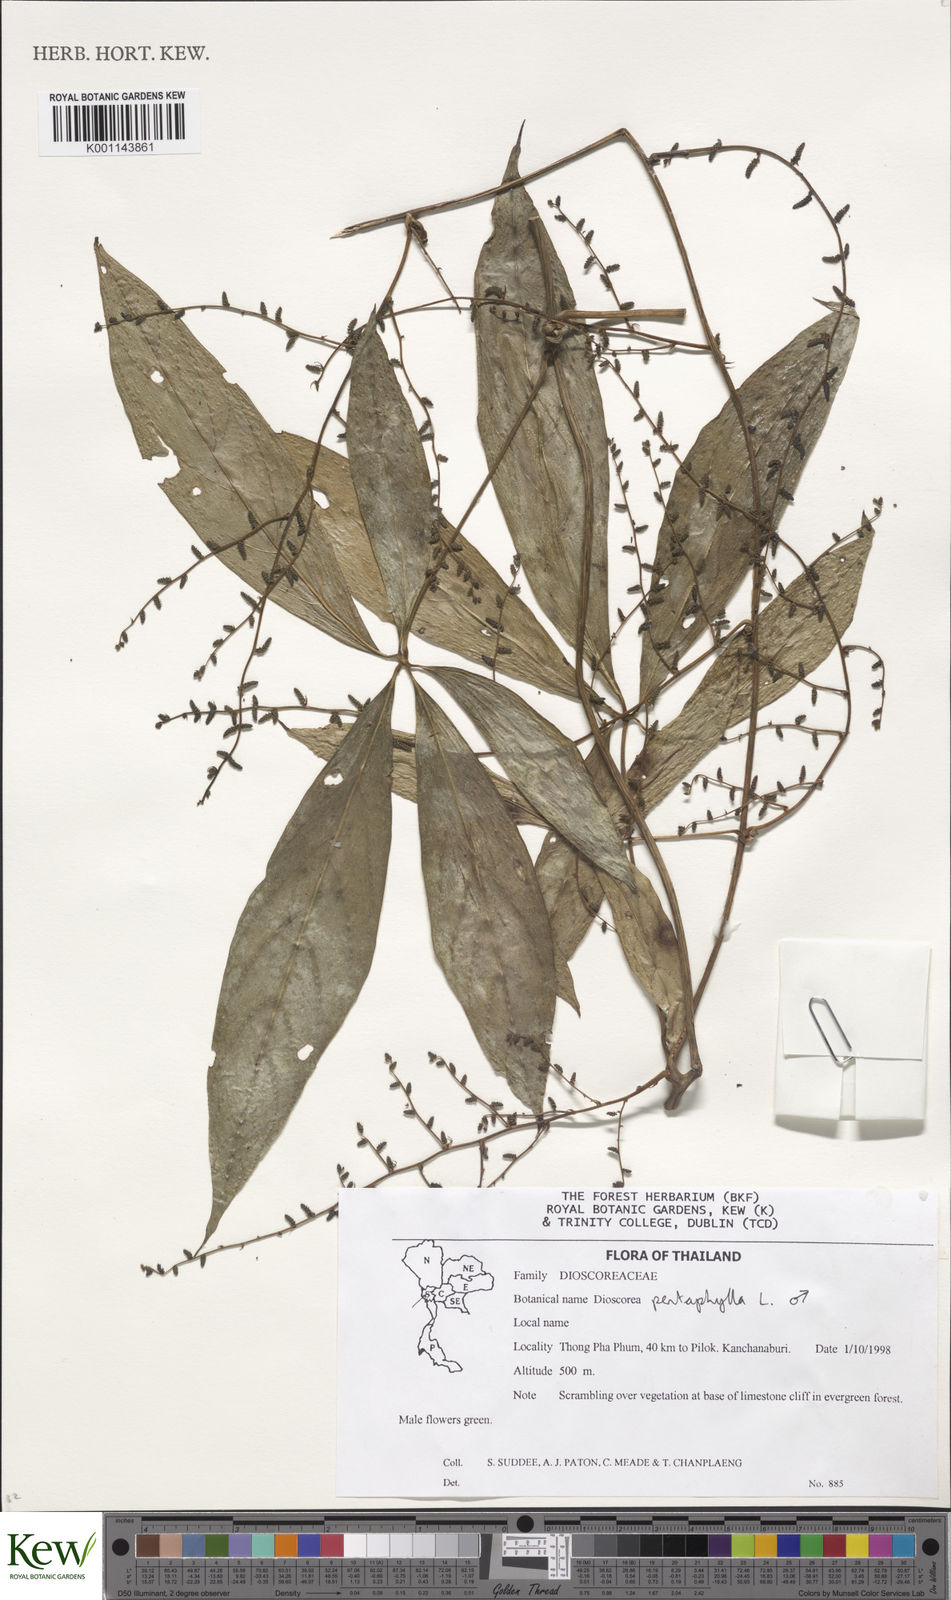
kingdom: Plantae
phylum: Tracheophyta
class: Liliopsida
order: Dioscoreales
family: Dioscoreaceae
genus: Dioscorea
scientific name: Dioscorea pentaphylla
